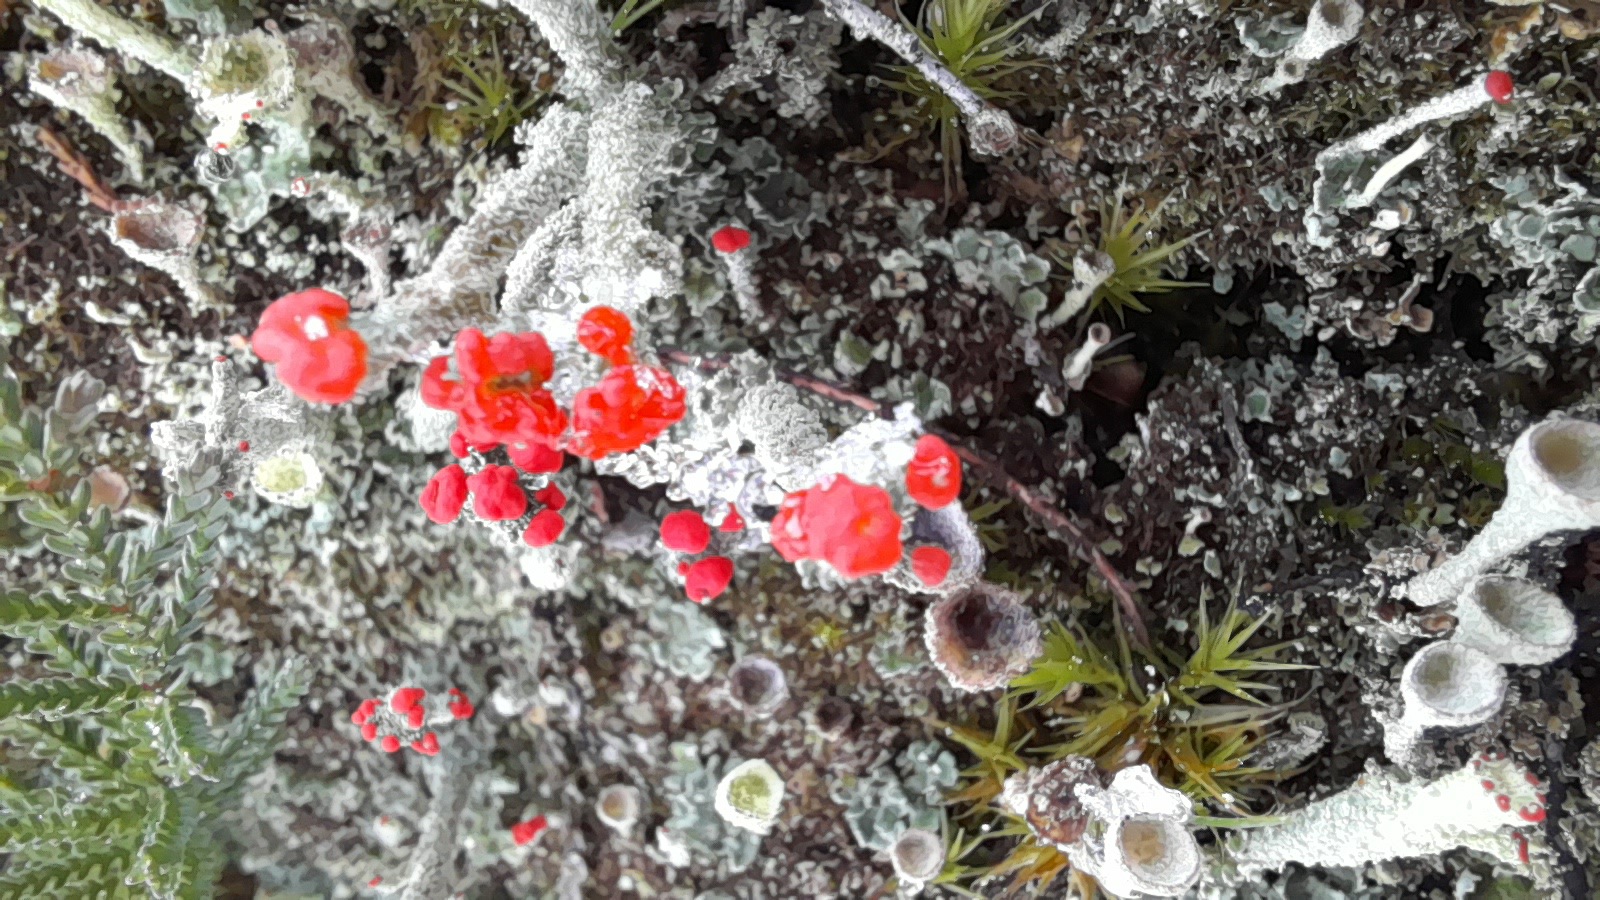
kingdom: Fungi
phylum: Ascomycota
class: Lecanoromycetes
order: Lecanorales
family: Cladoniaceae
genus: Cladonia
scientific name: Cladonia floerkeana
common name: lakrød bægerlav
